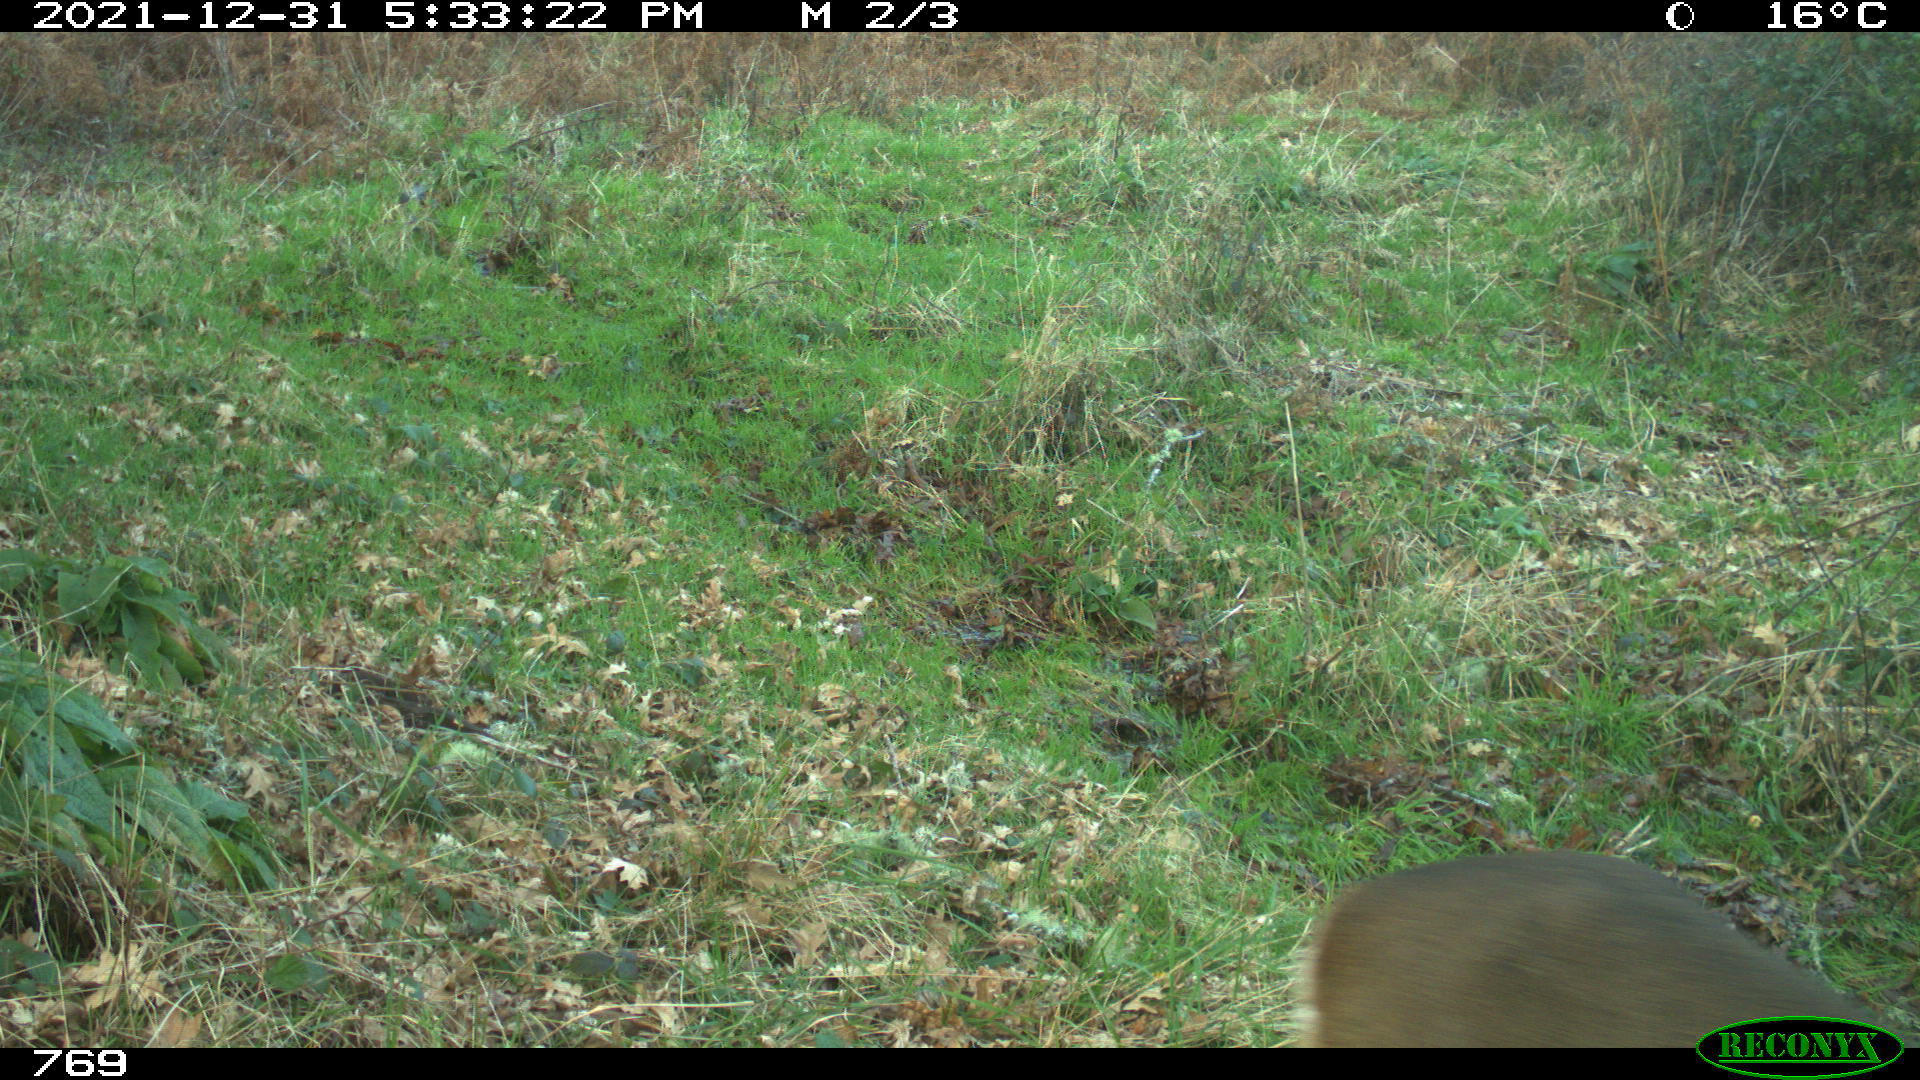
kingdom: Animalia
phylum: Chordata
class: Mammalia
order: Artiodactyla
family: Cervidae
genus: Capreolus
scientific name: Capreolus capreolus
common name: Western roe deer
